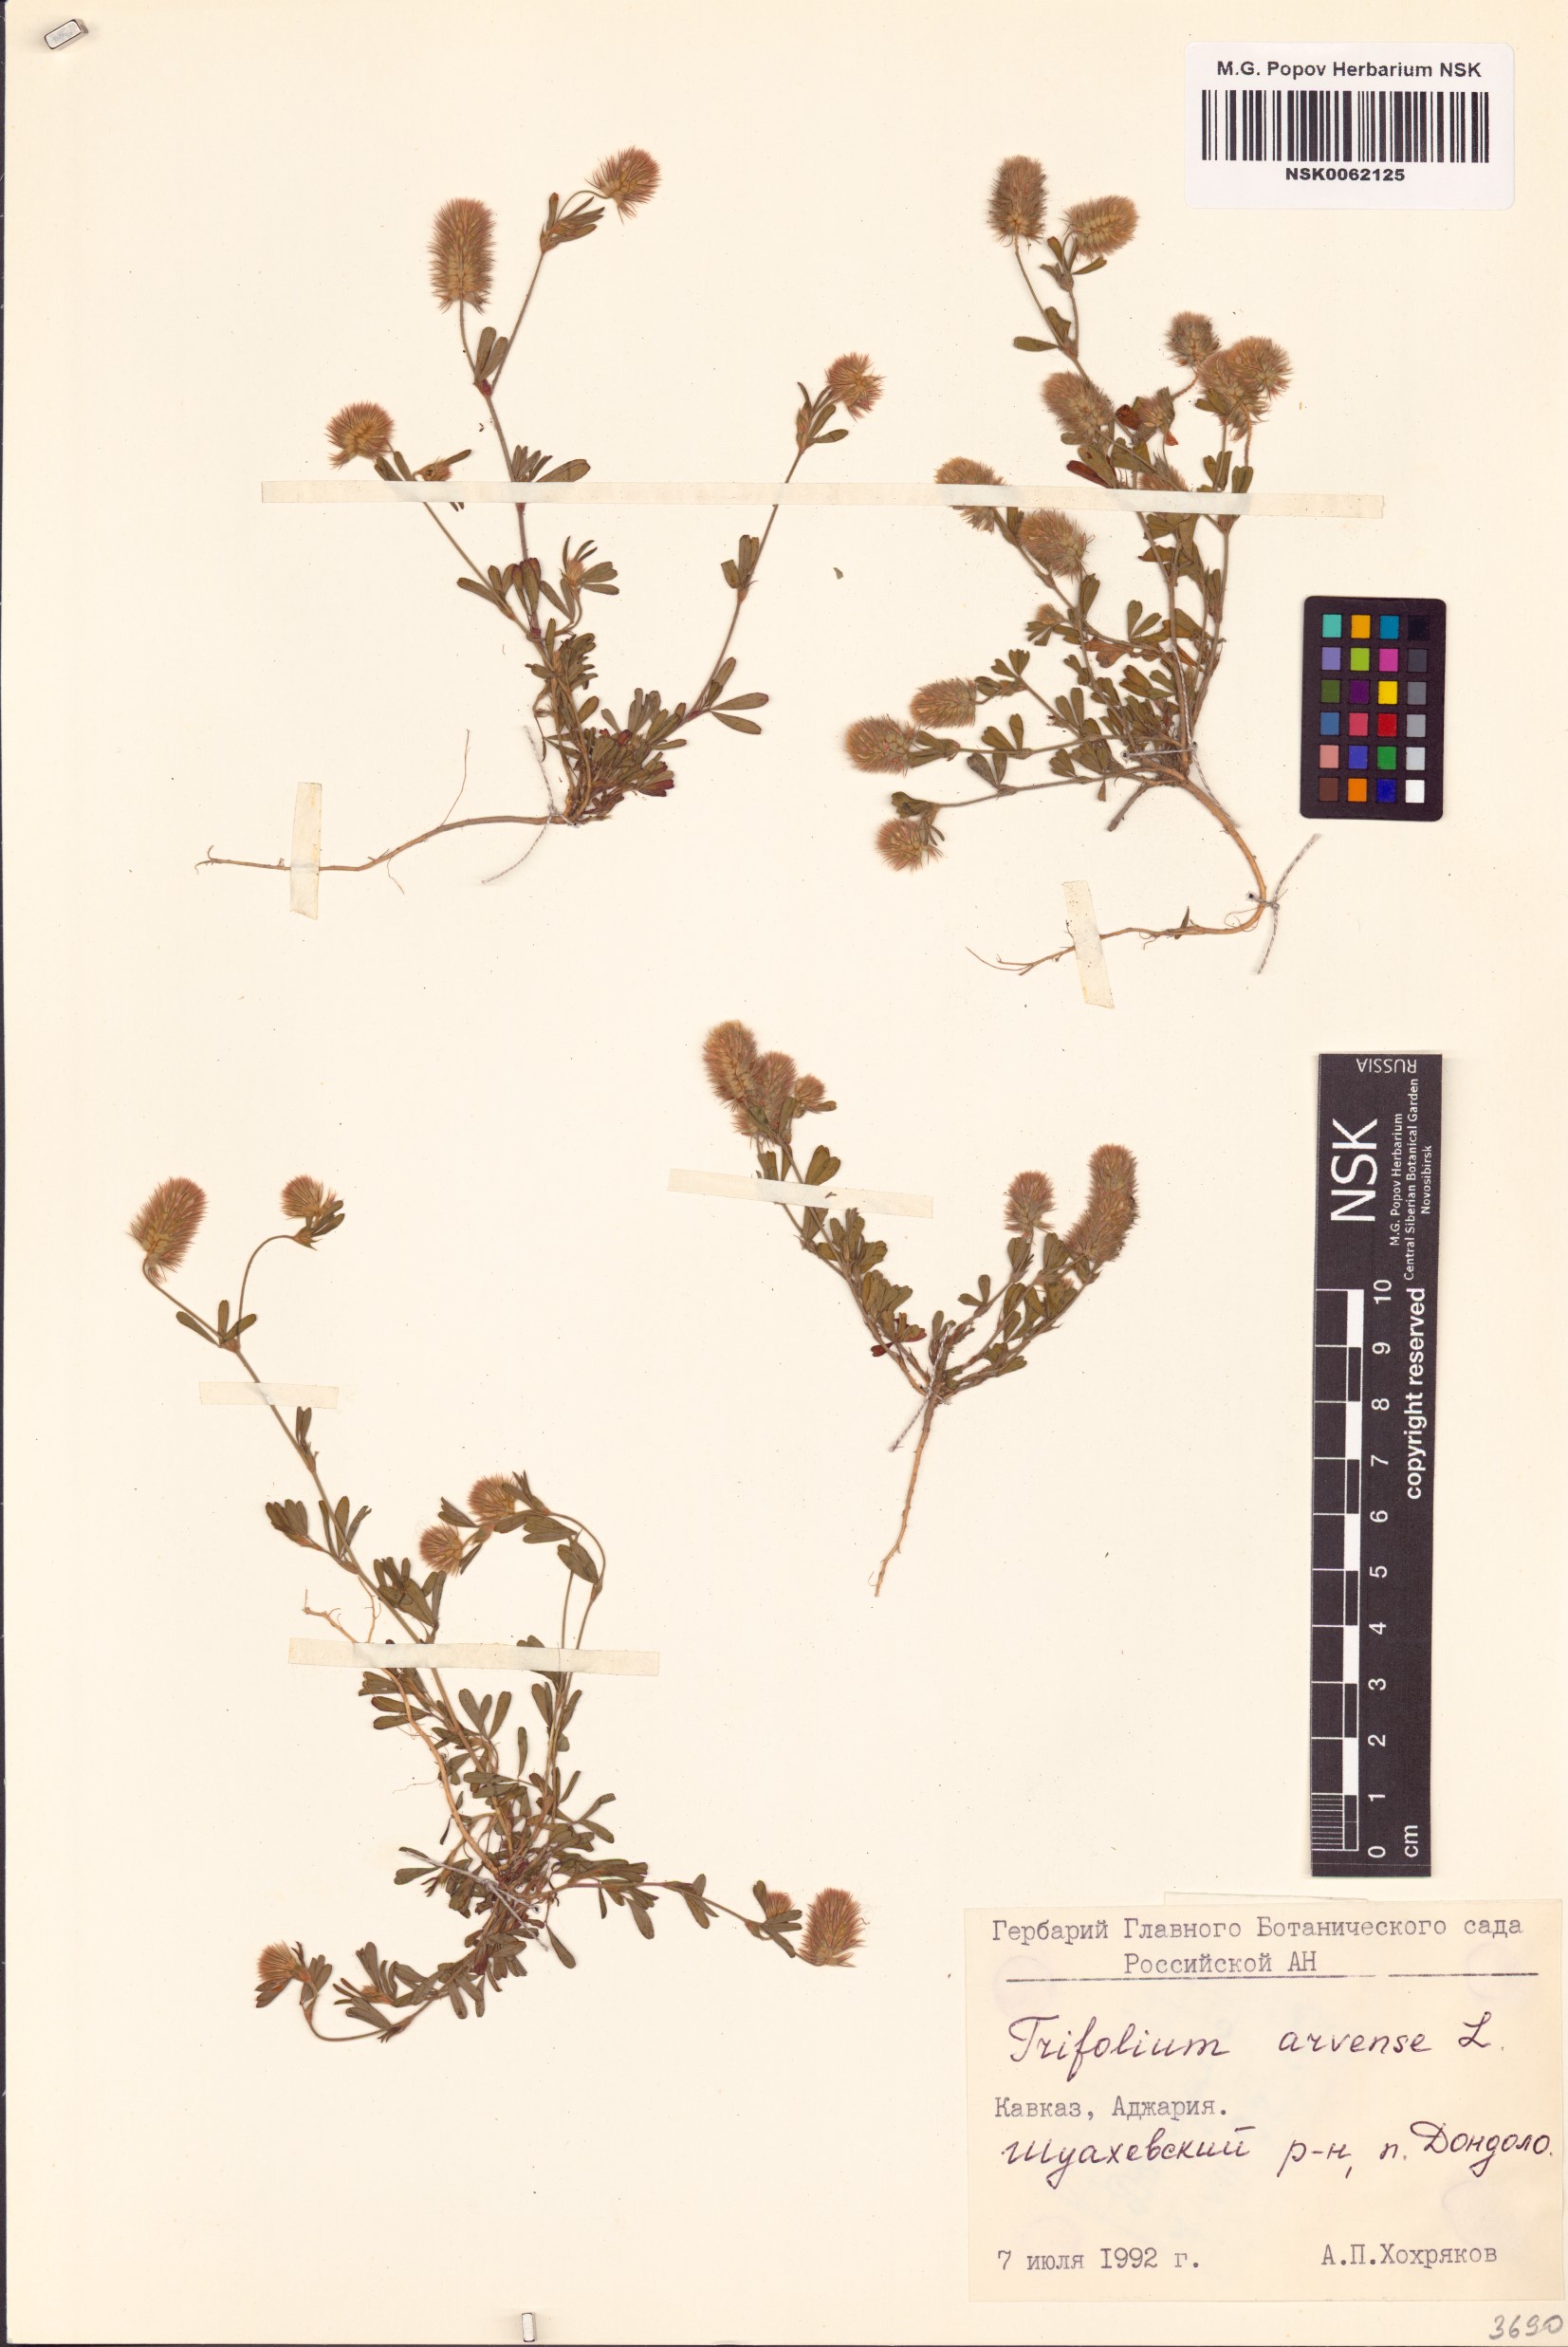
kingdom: Plantae
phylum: Tracheophyta
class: Magnoliopsida
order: Fabales
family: Fabaceae
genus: Trifolium
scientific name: Trifolium arvense
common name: Hare's-foot clover
